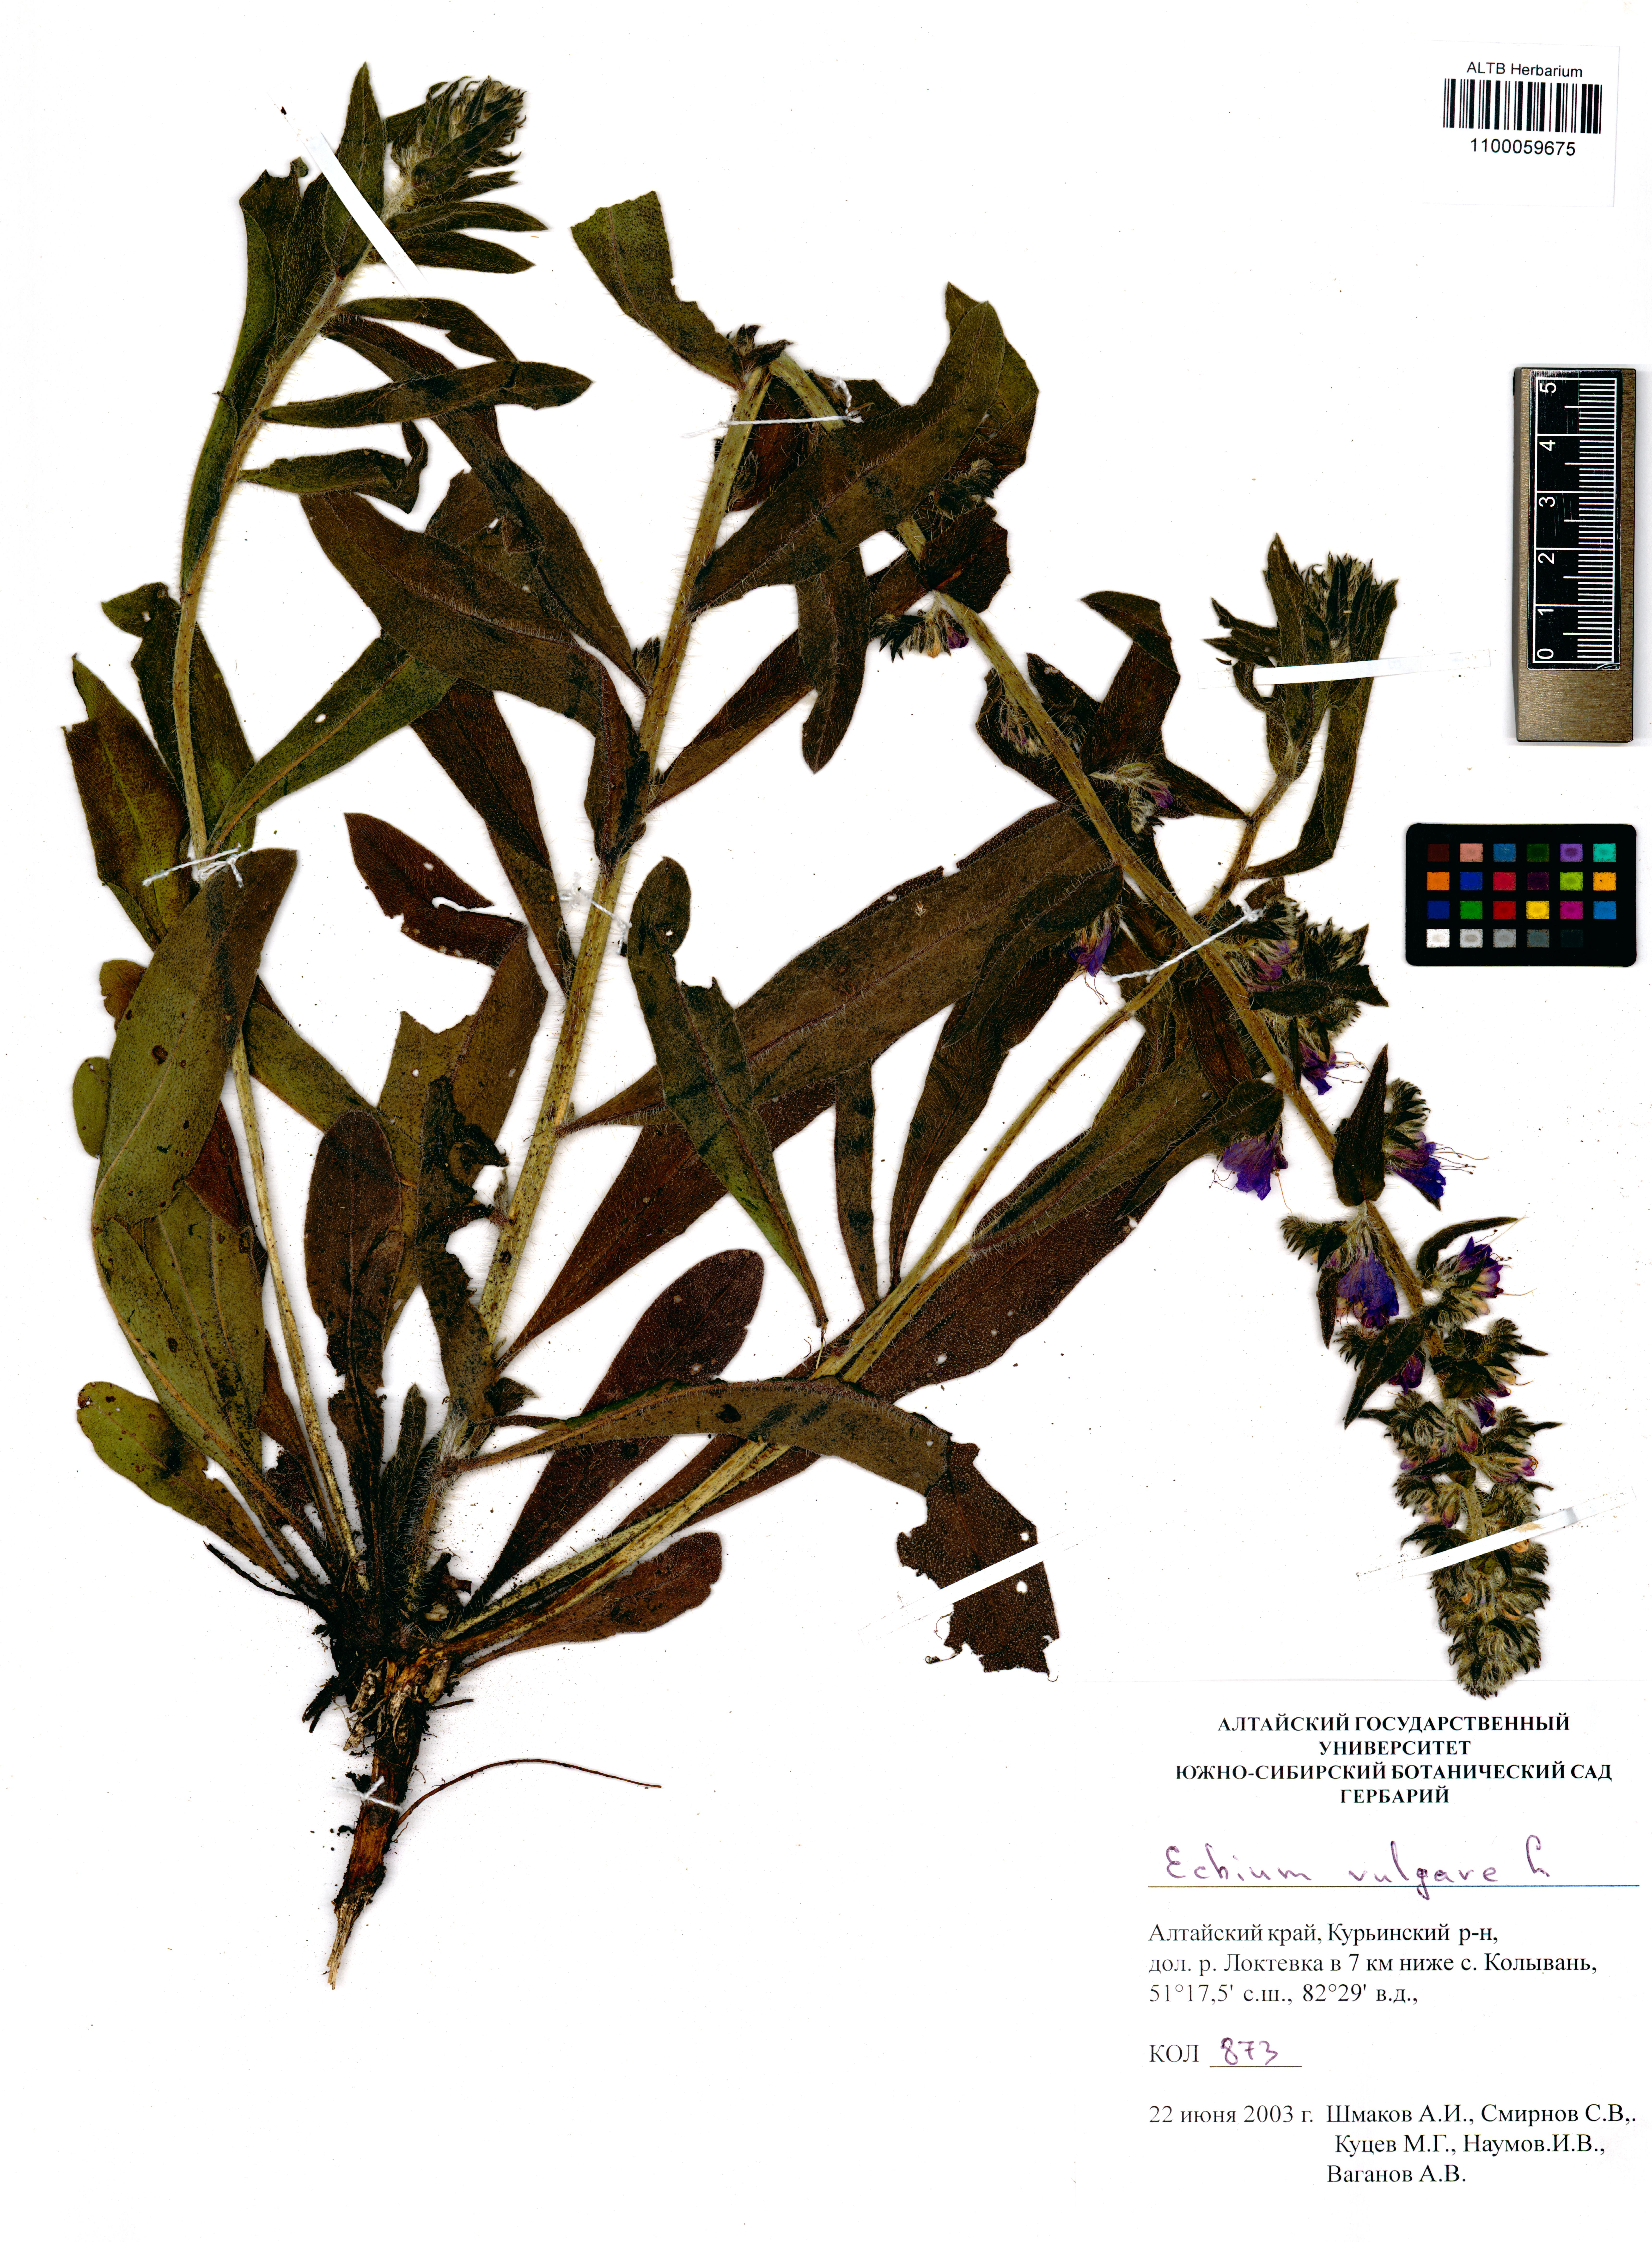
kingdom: Plantae
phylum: Tracheophyta
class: Magnoliopsida
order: Boraginales
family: Boraginaceae
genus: Echium
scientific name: Echium vulgare
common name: Common viper's bugloss
